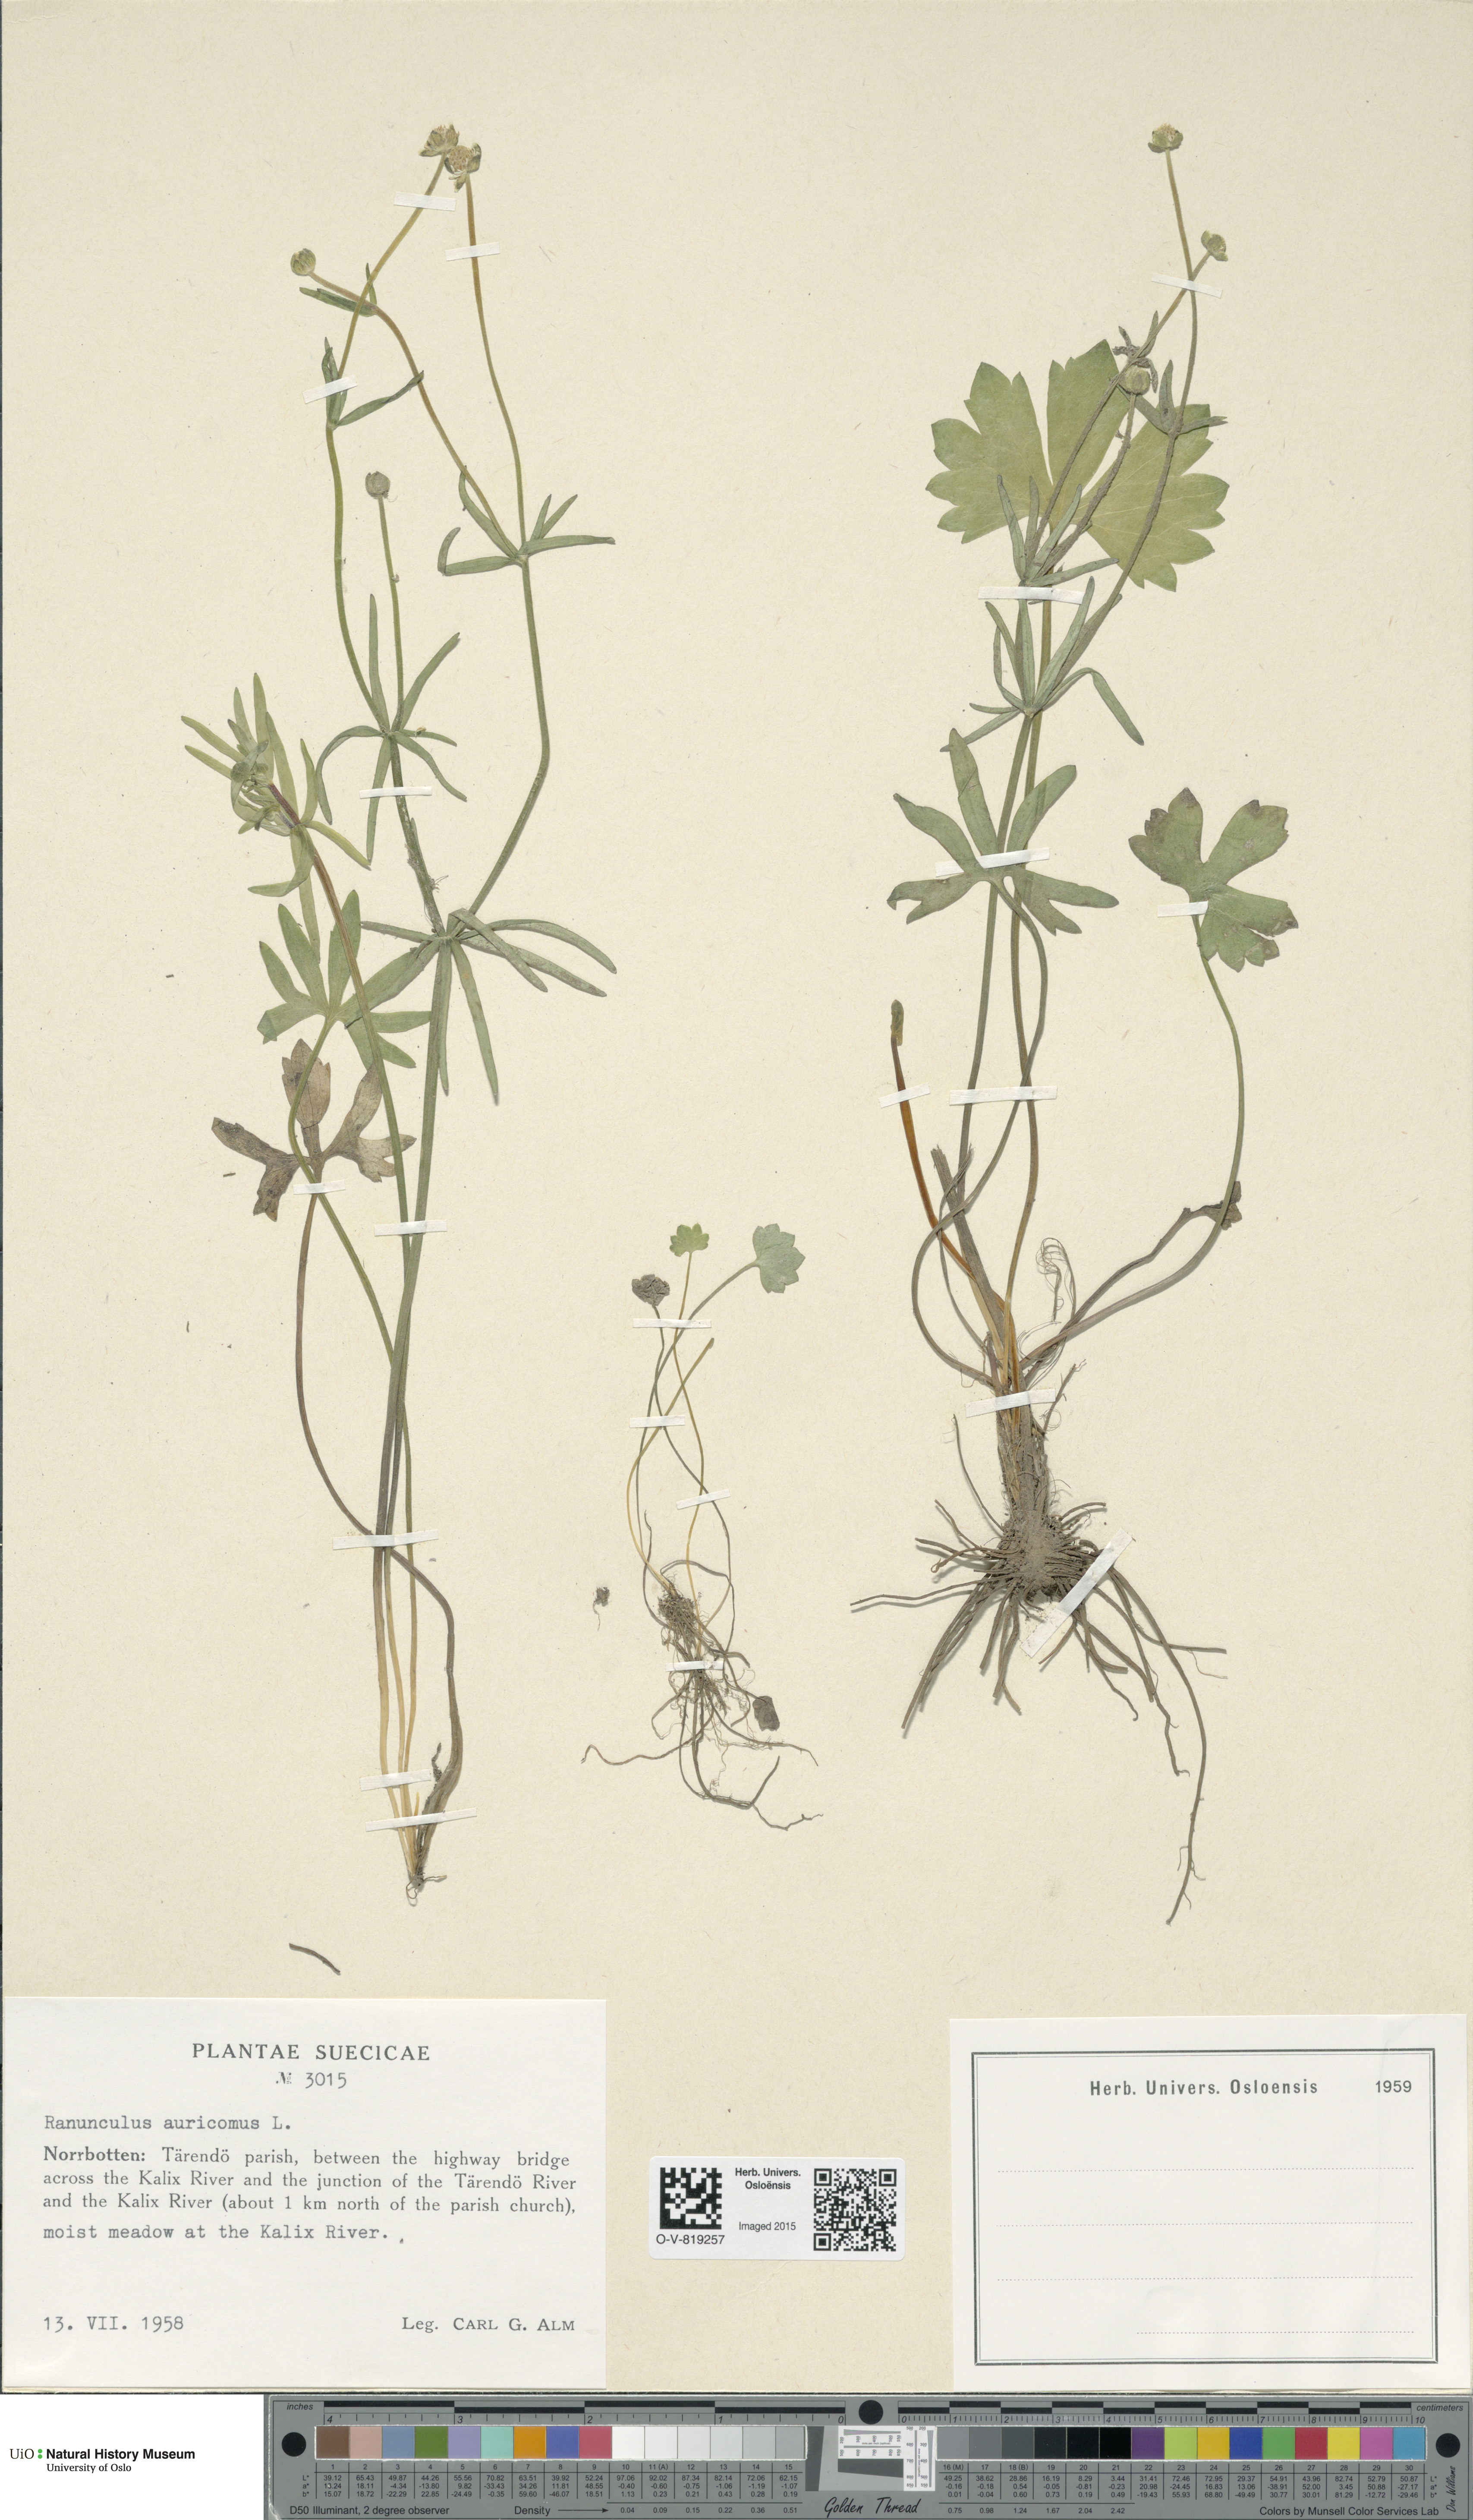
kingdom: Plantae
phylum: Tracheophyta
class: Magnoliopsida
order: Ranunculales
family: Ranunculaceae
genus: Ranunculus
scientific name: Ranunculus auricomus
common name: Goldilocks buttercup
